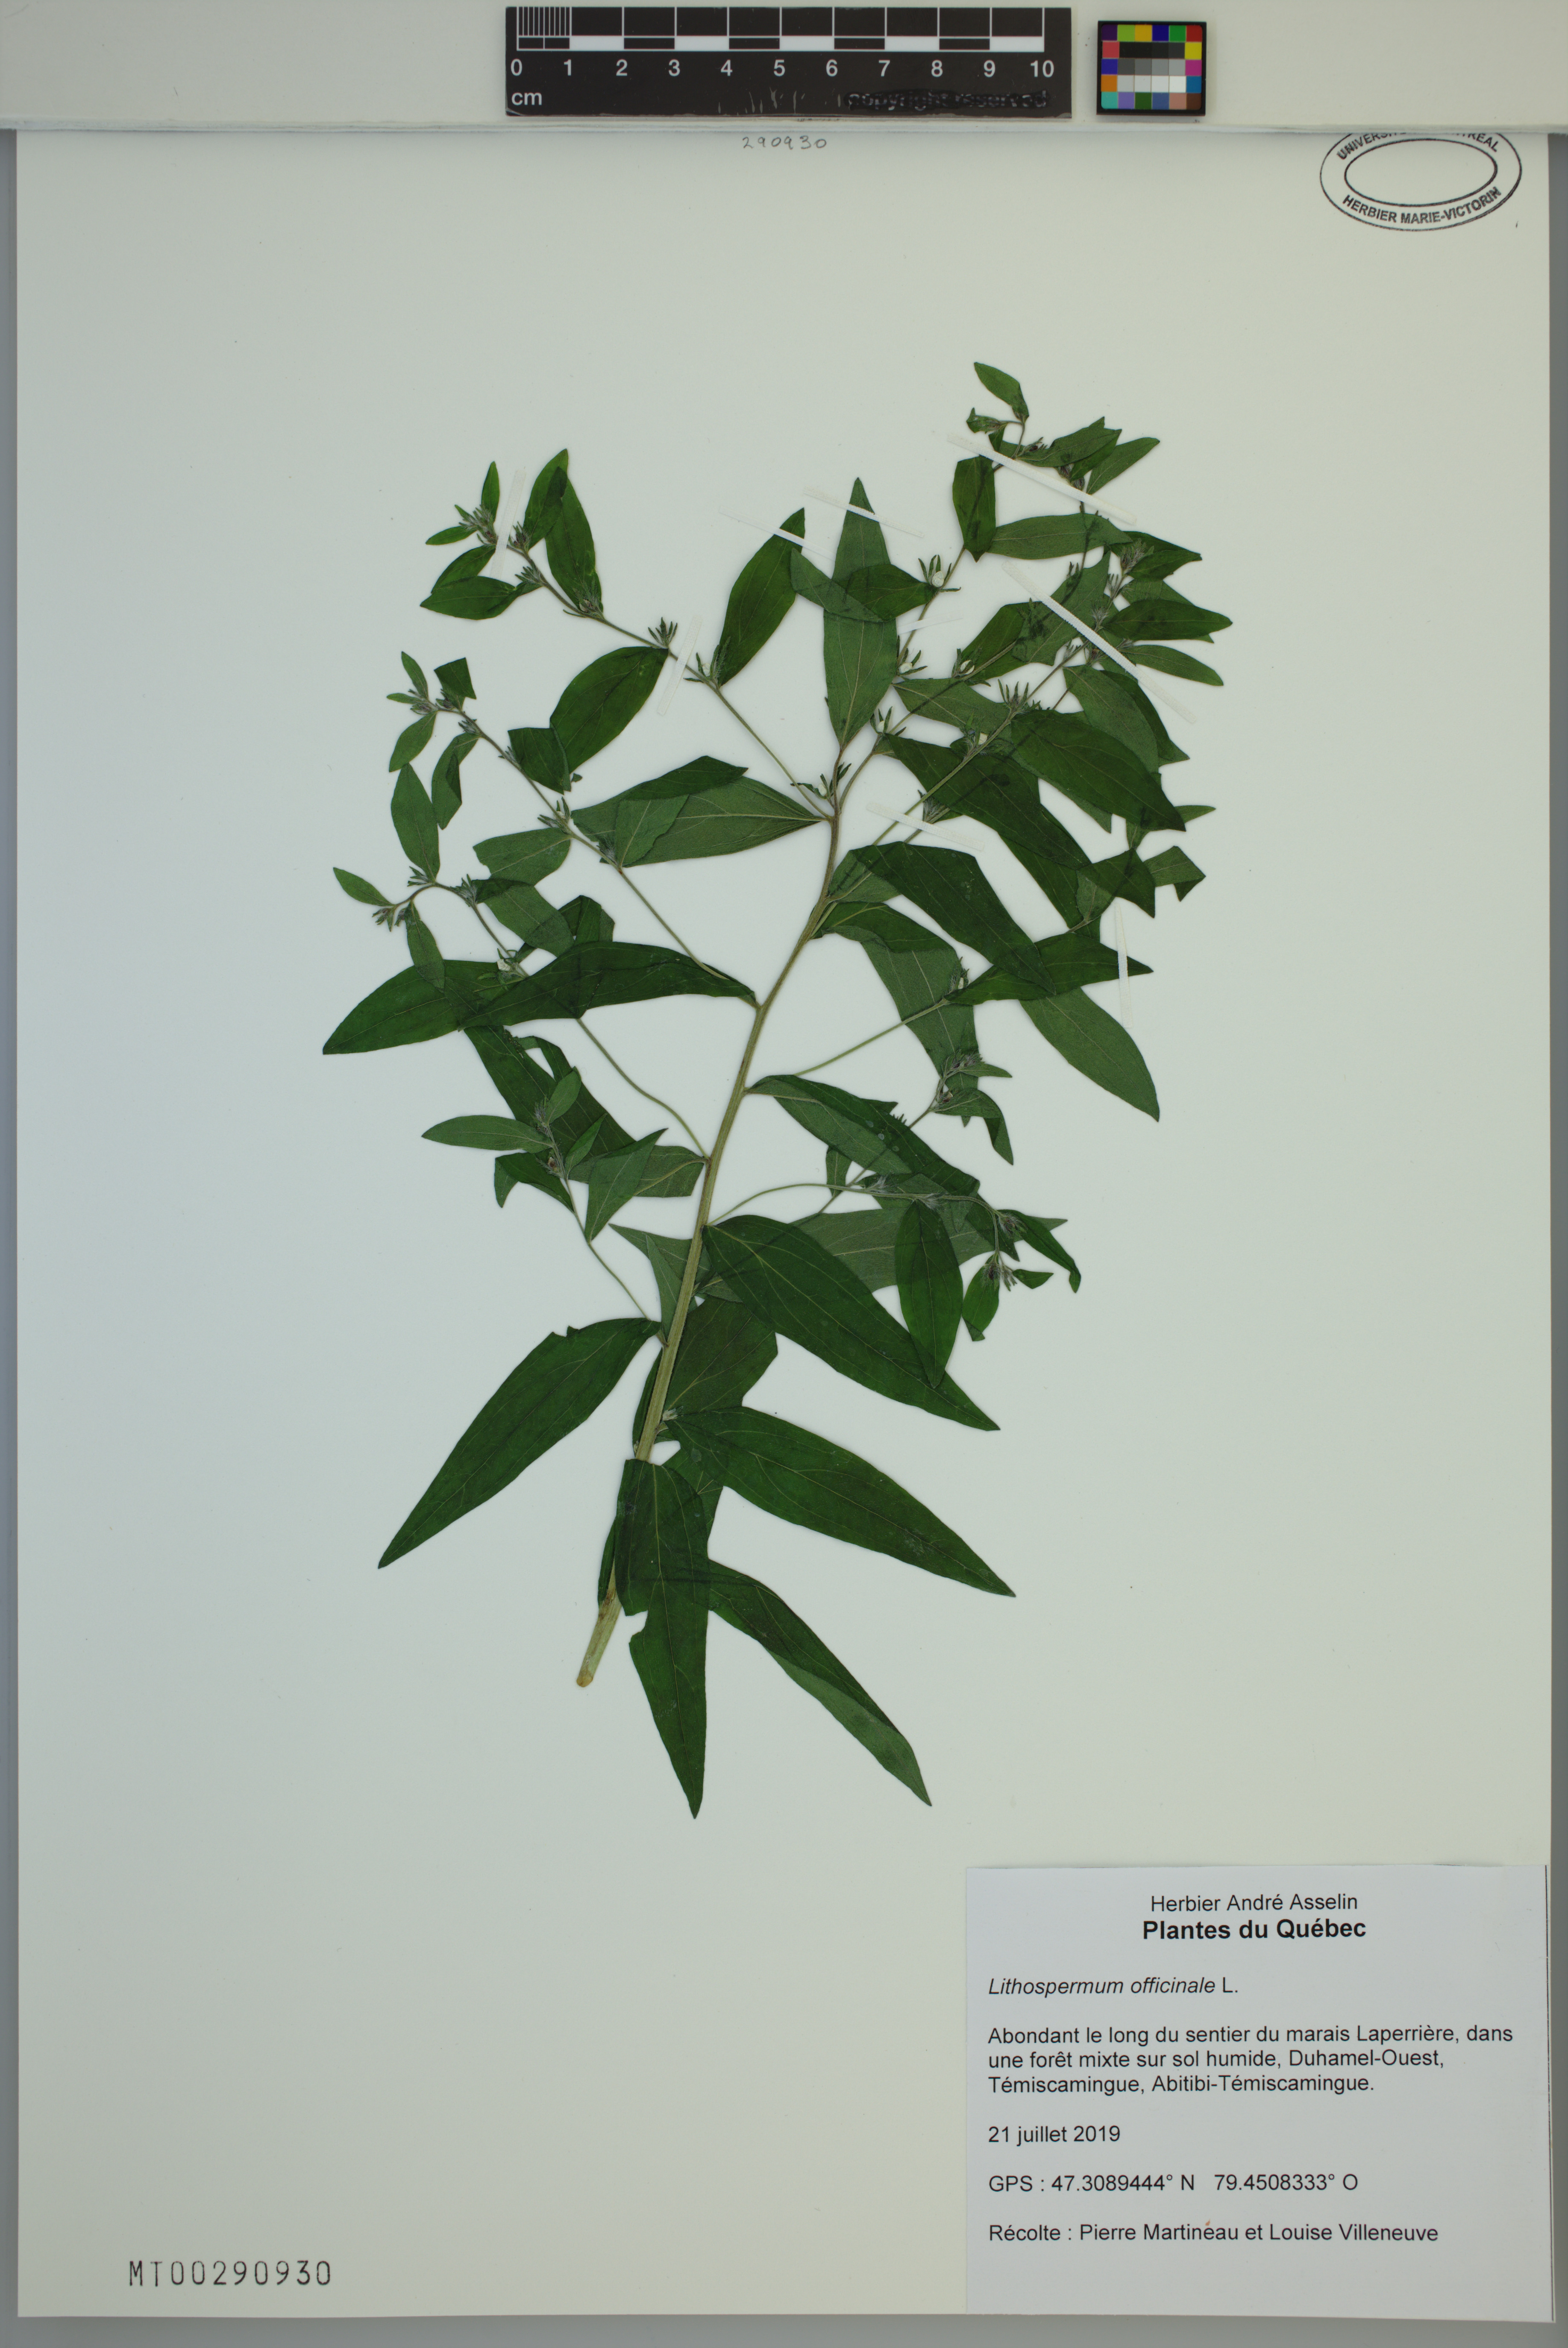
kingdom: Plantae
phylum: Tracheophyta
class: Magnoliopsida
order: Boraginales
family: Boraginaceae
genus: Lithospermum
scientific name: Lithospermum officinale
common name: Common gromwell
